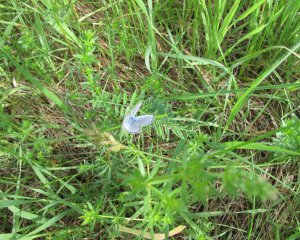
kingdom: Animalia
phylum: Arthropoda
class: Insecta
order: Lepidoptera
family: Lycaenidae
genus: Glaucopsyche
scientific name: Glaucopsyche lygdamus
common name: Silvery Blue
